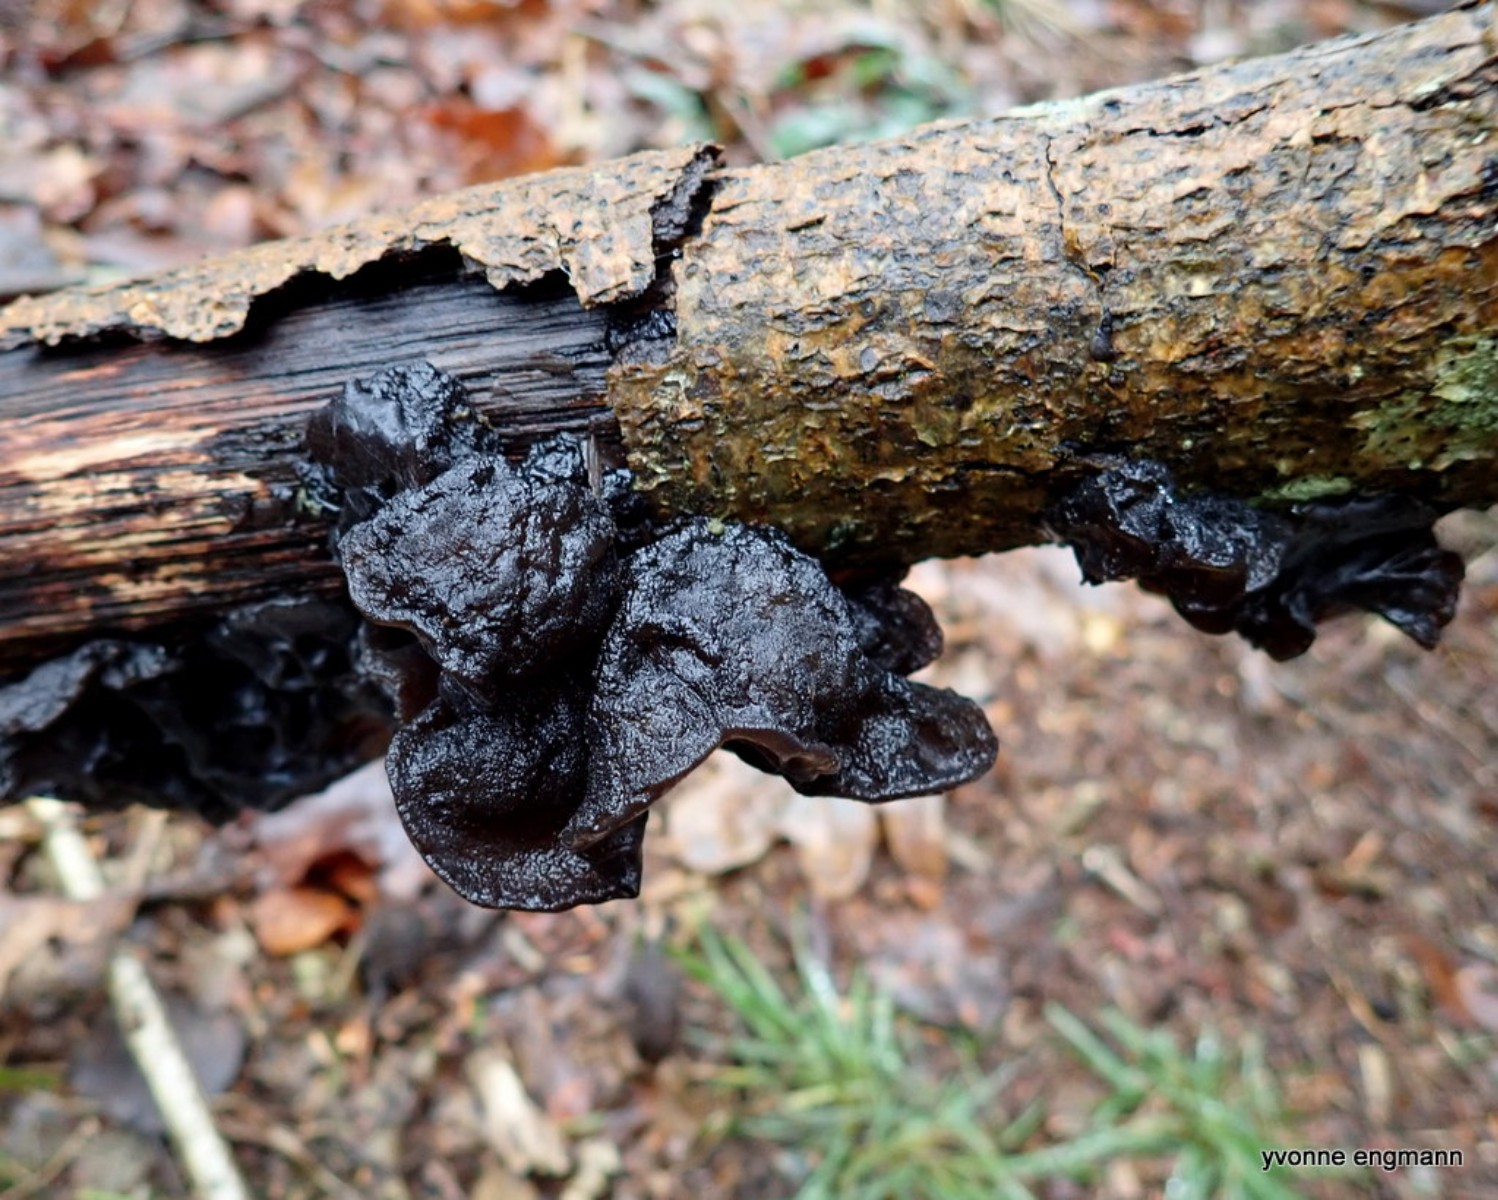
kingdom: Fungi
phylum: Basidiomycota
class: Agaricomycetes
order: Auriculariales
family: Auriculariaceae
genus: Exidia
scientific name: Exidia glandulosa
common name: ege-bævretop
